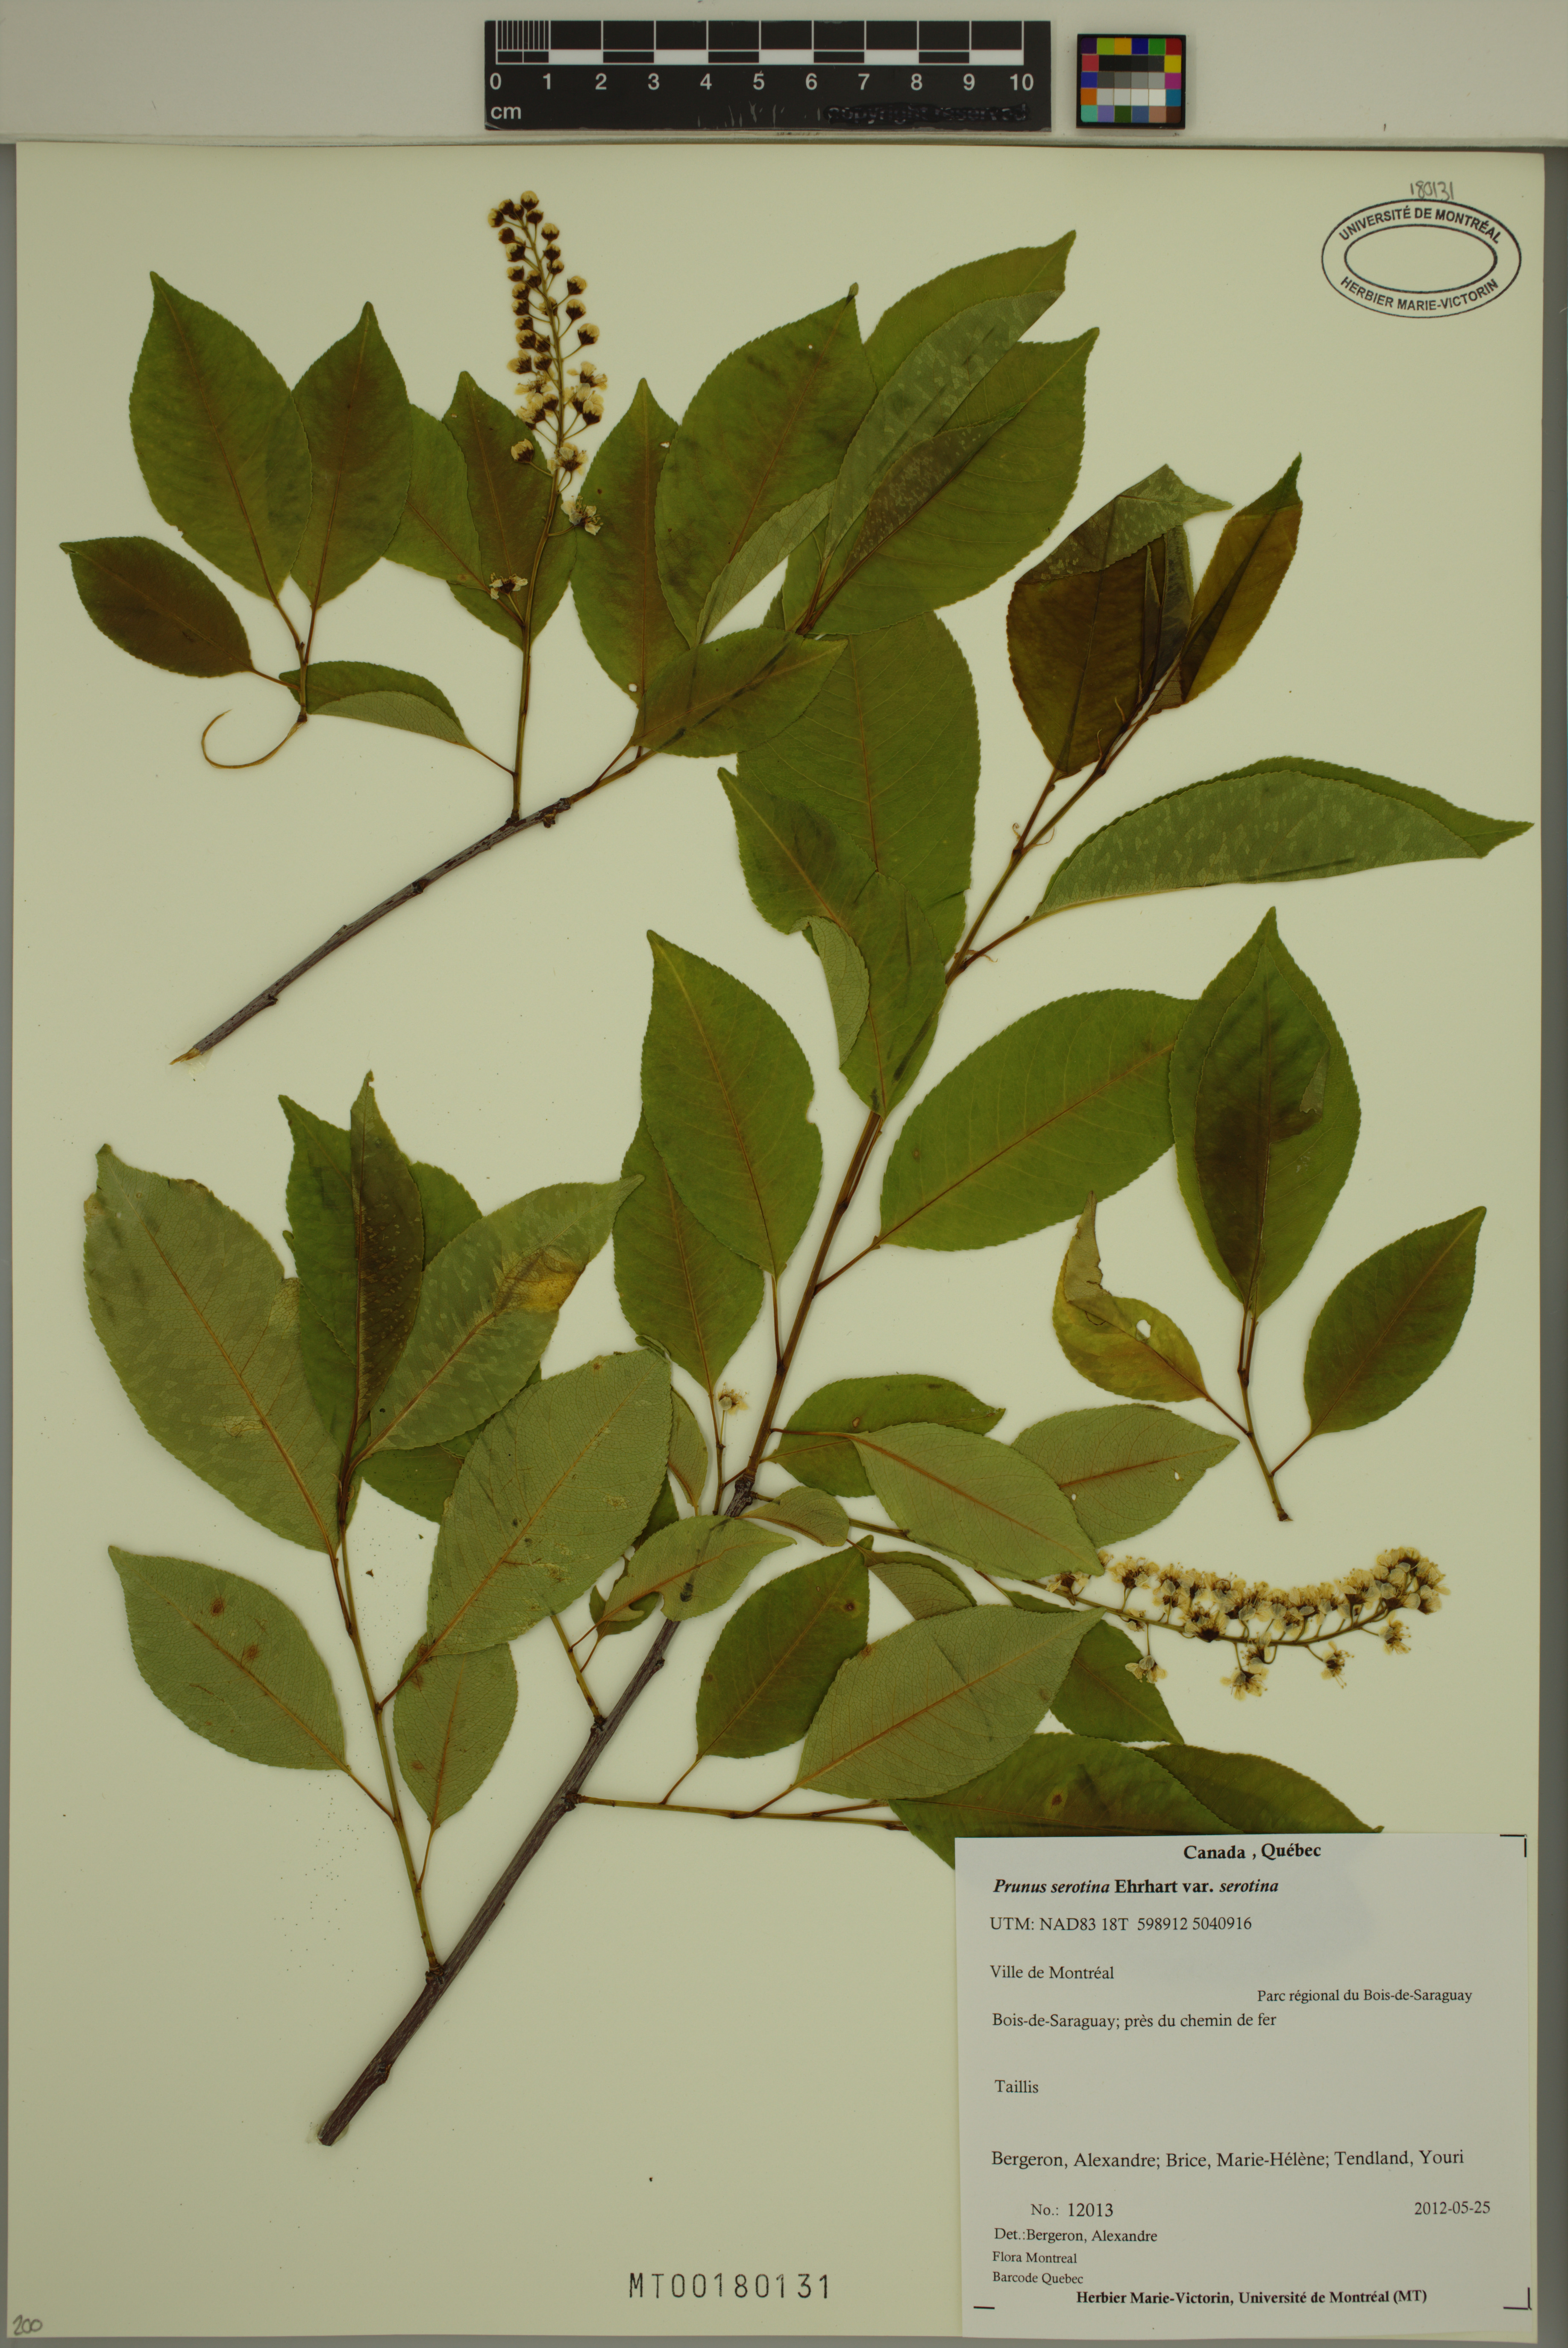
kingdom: Plantae
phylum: Tracheophyta
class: Magnoliopsida
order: Rosales
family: Rosaceae
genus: Prunus
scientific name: Prunus serotina
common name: Black cherry
